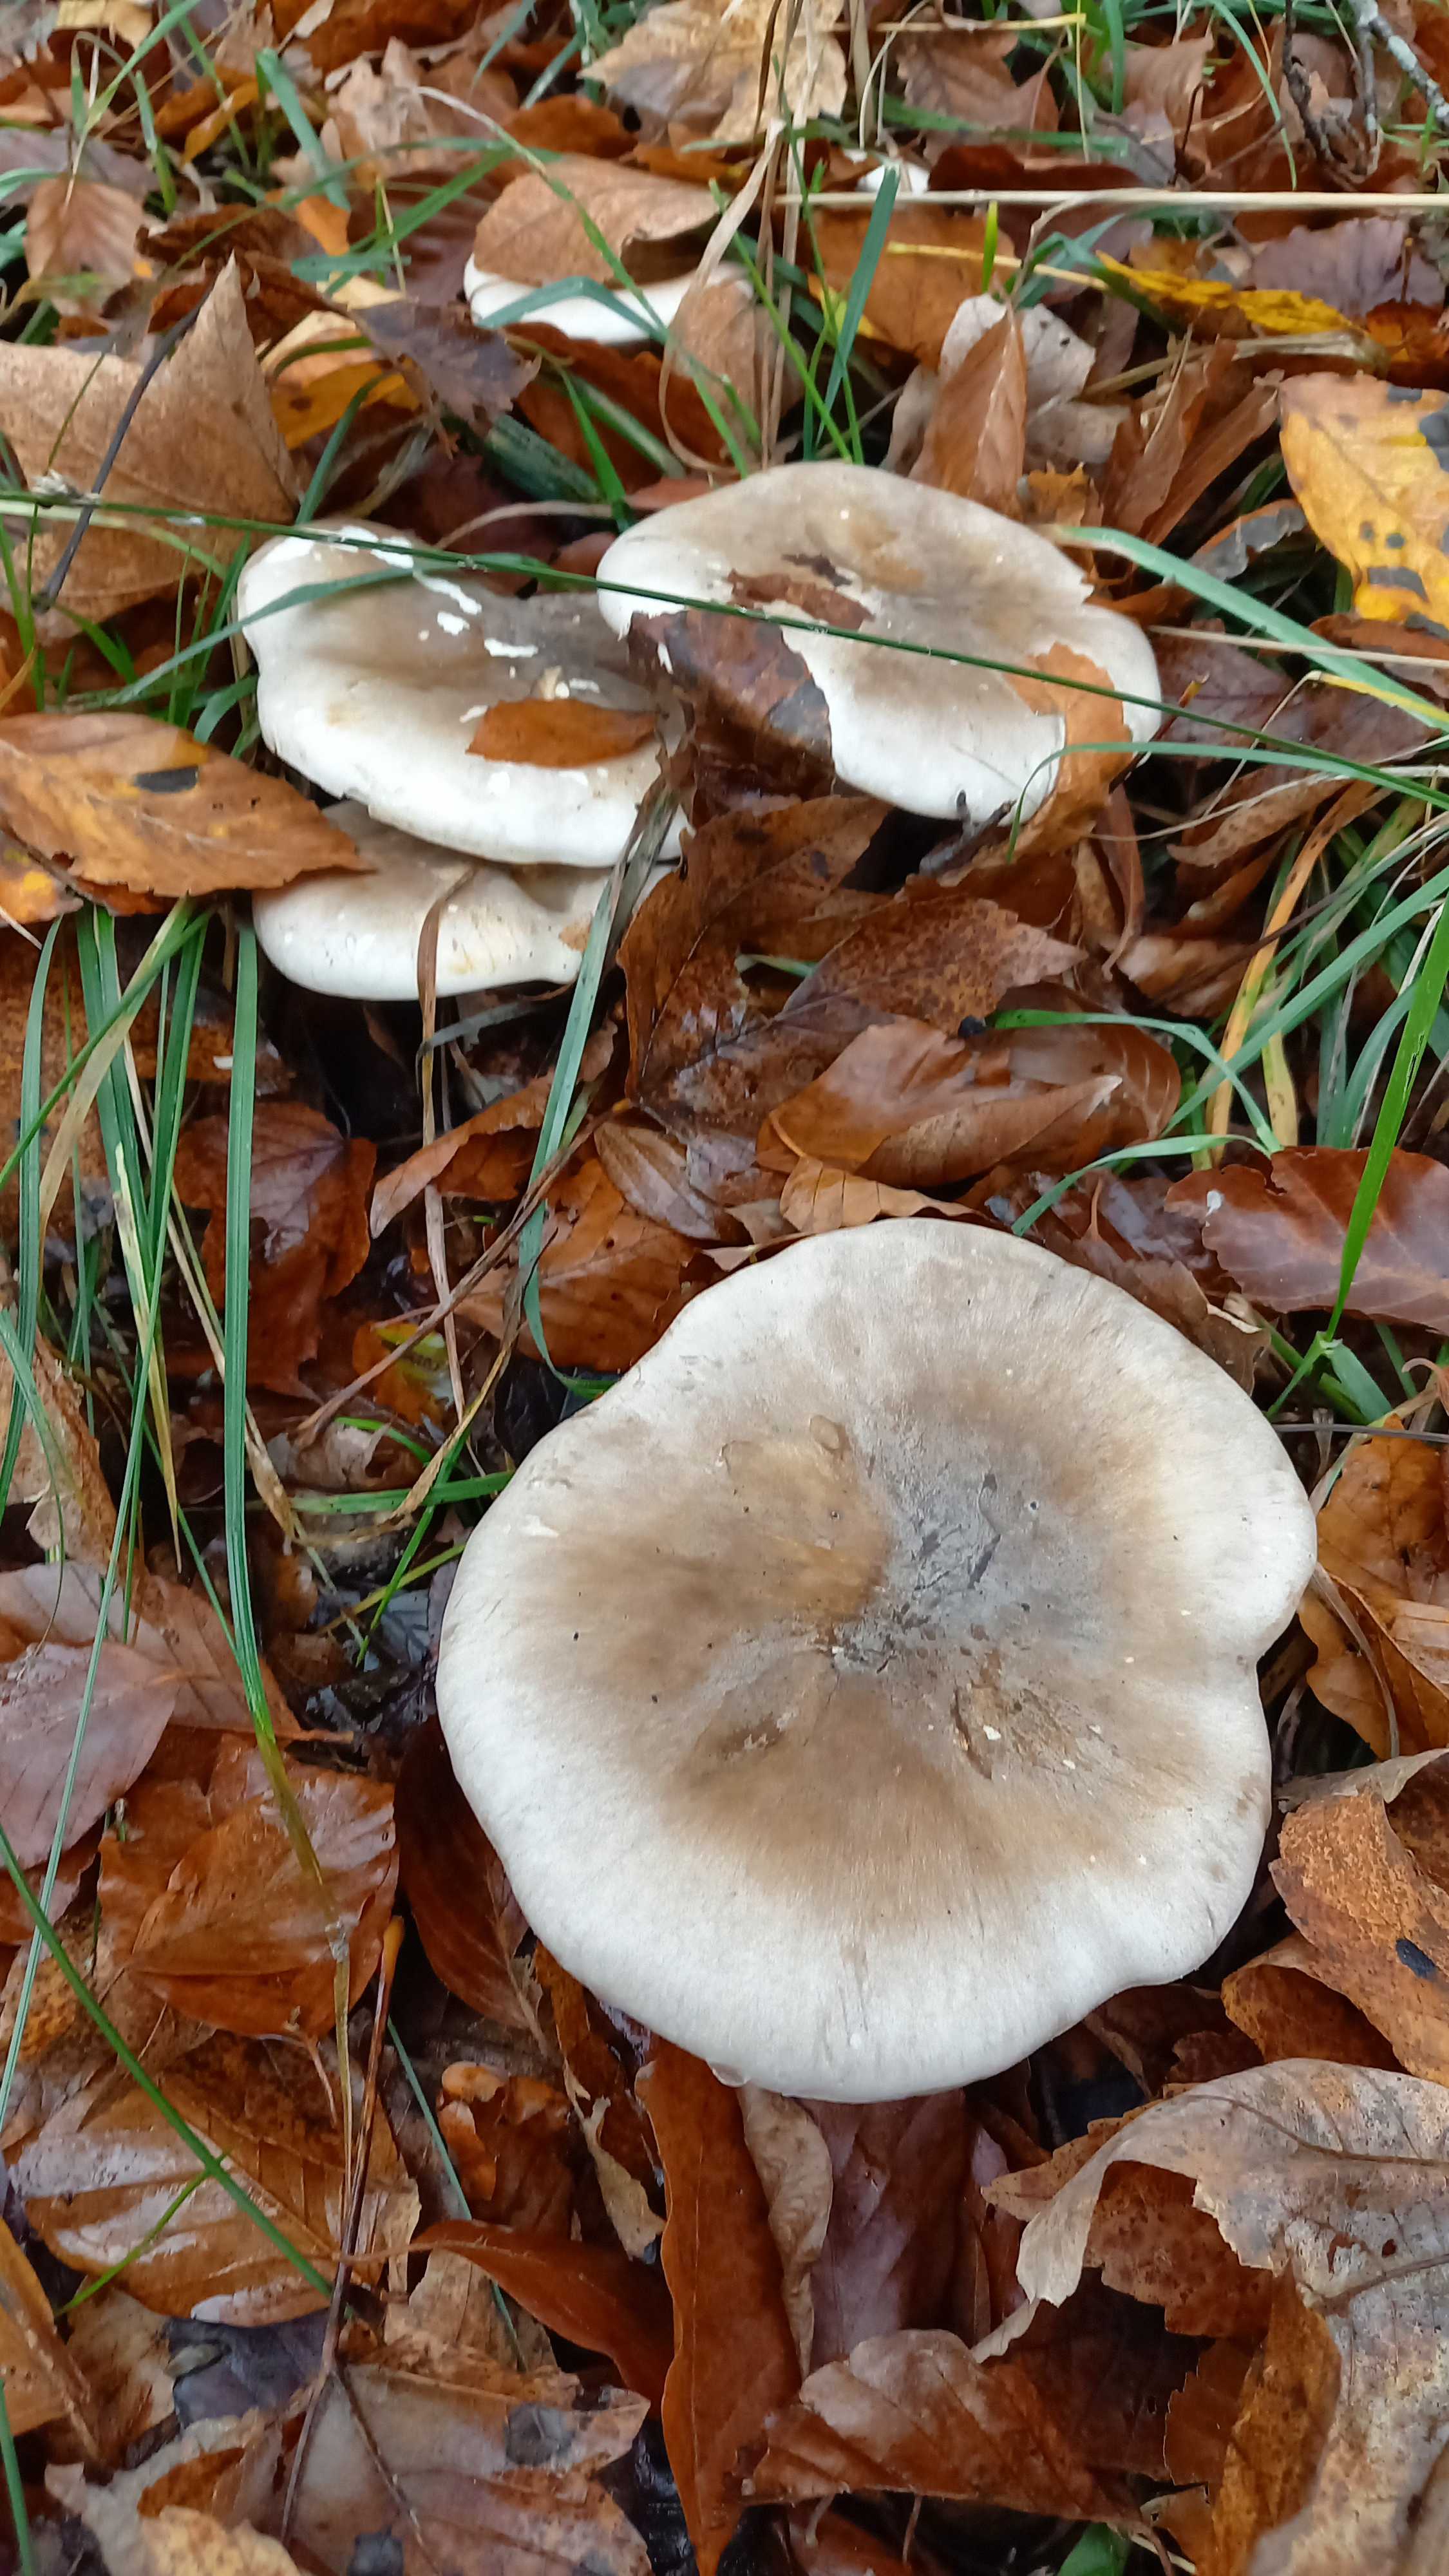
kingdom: Fungi
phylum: Basidiomycota
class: Agaricomycetes
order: Agaricales
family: Tricholomataceae
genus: Clitocybe
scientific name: Clitocybe nebularis
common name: tåge-tragthat
